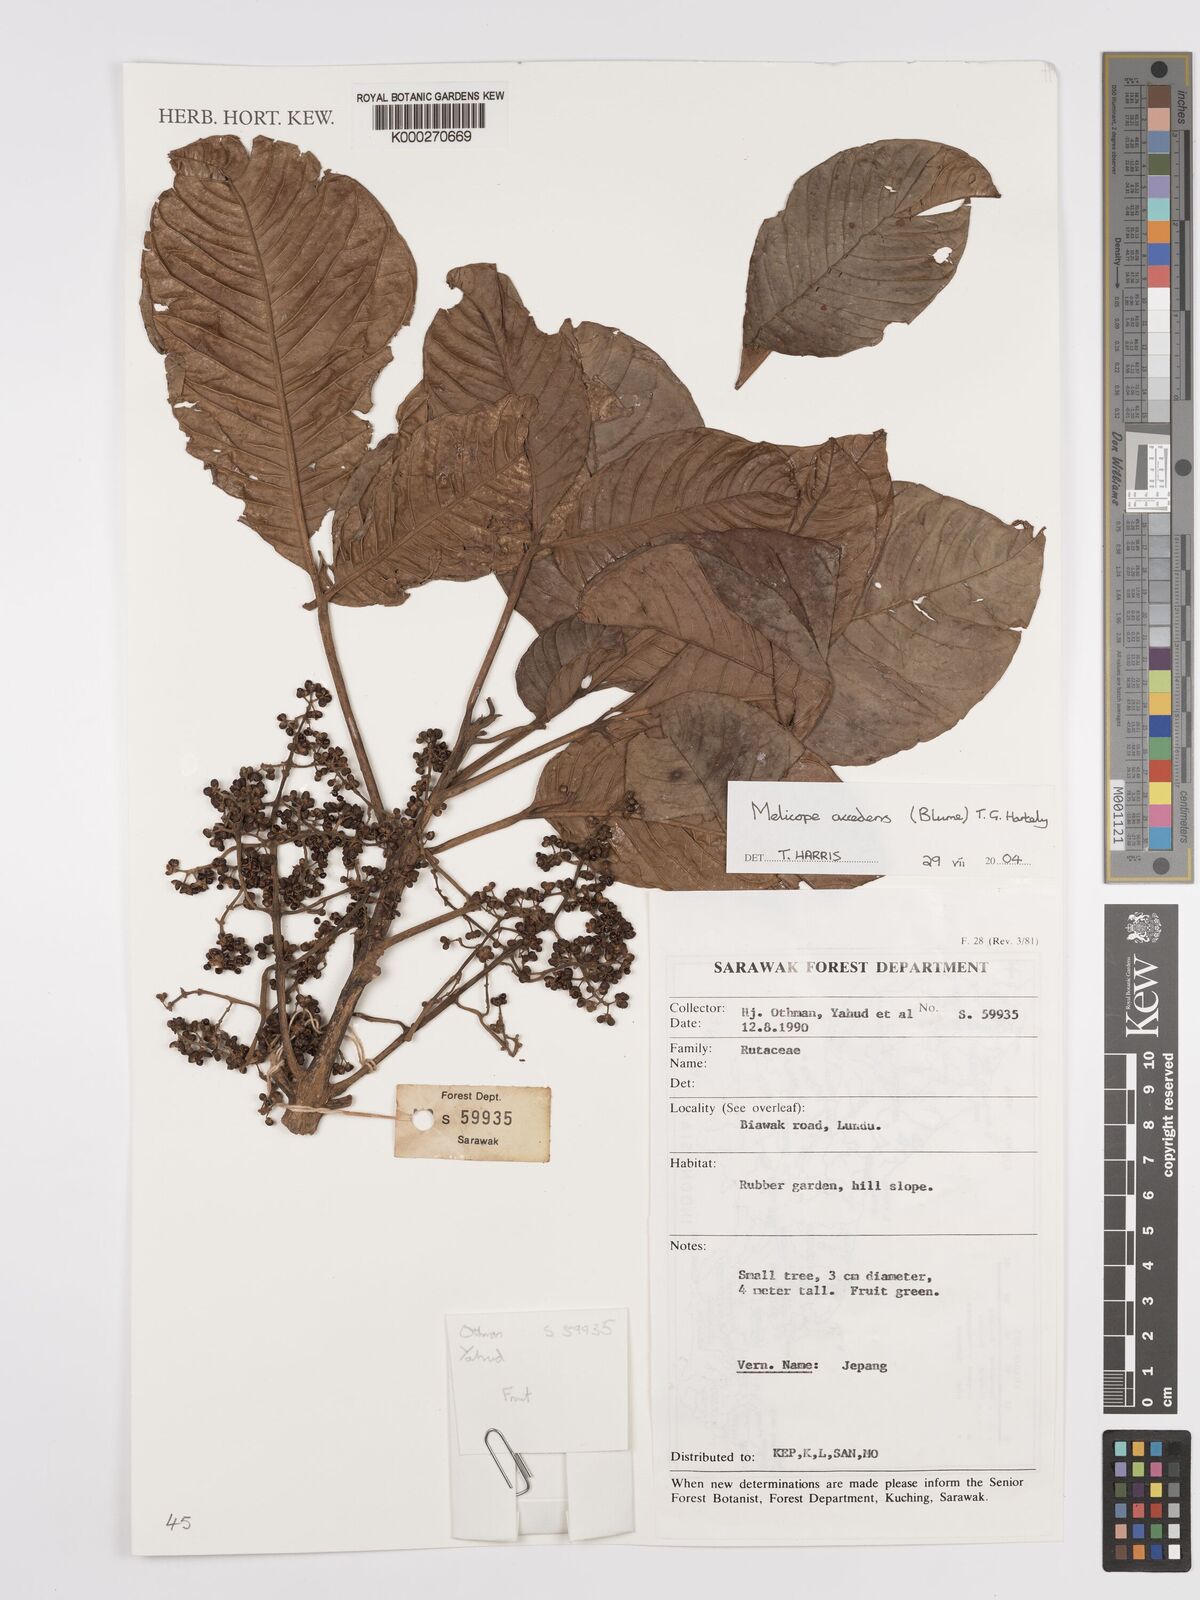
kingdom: Plantae
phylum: Tracheophyta
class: Magnoliopsida
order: Sapindales
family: Rutaceae
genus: Melicope
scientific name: Melicope accedens
